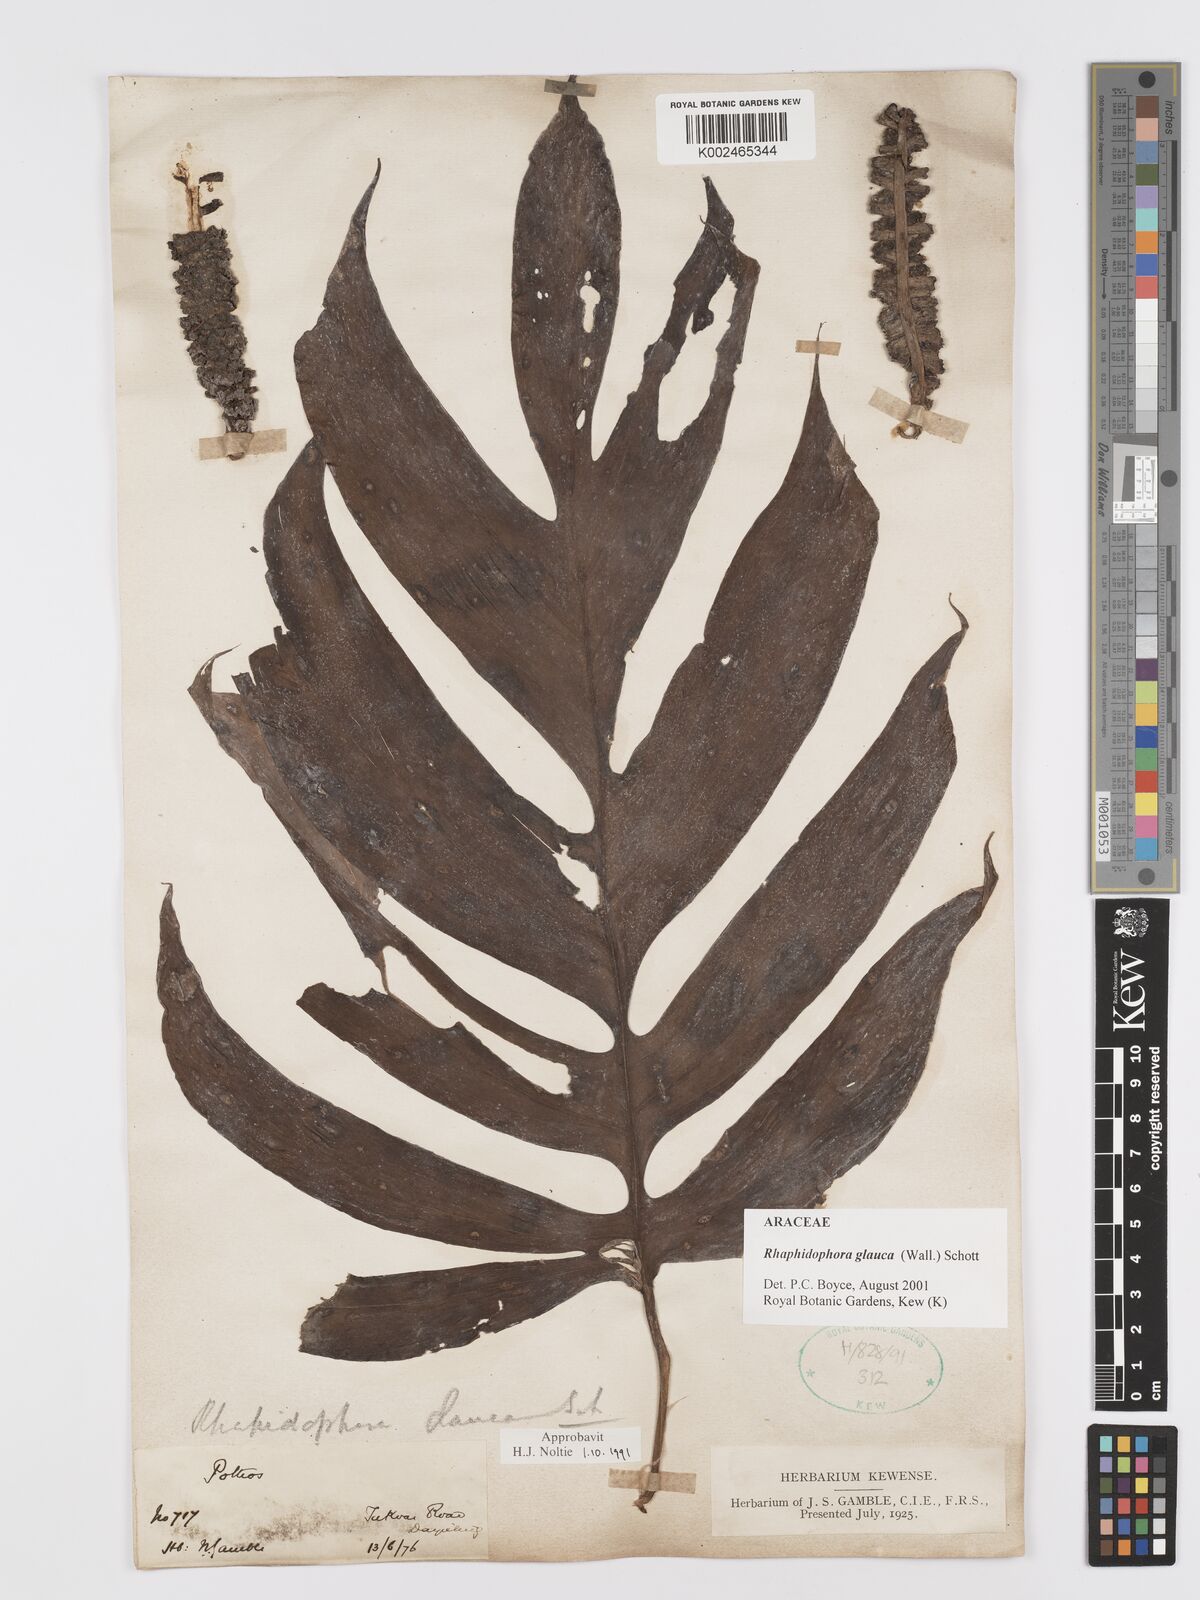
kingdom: Plantae
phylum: Tracheophyta
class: Liliopsida
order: Alismatales
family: Araceae
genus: Rhaphidophora
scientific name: Rhaphidophora glauca
